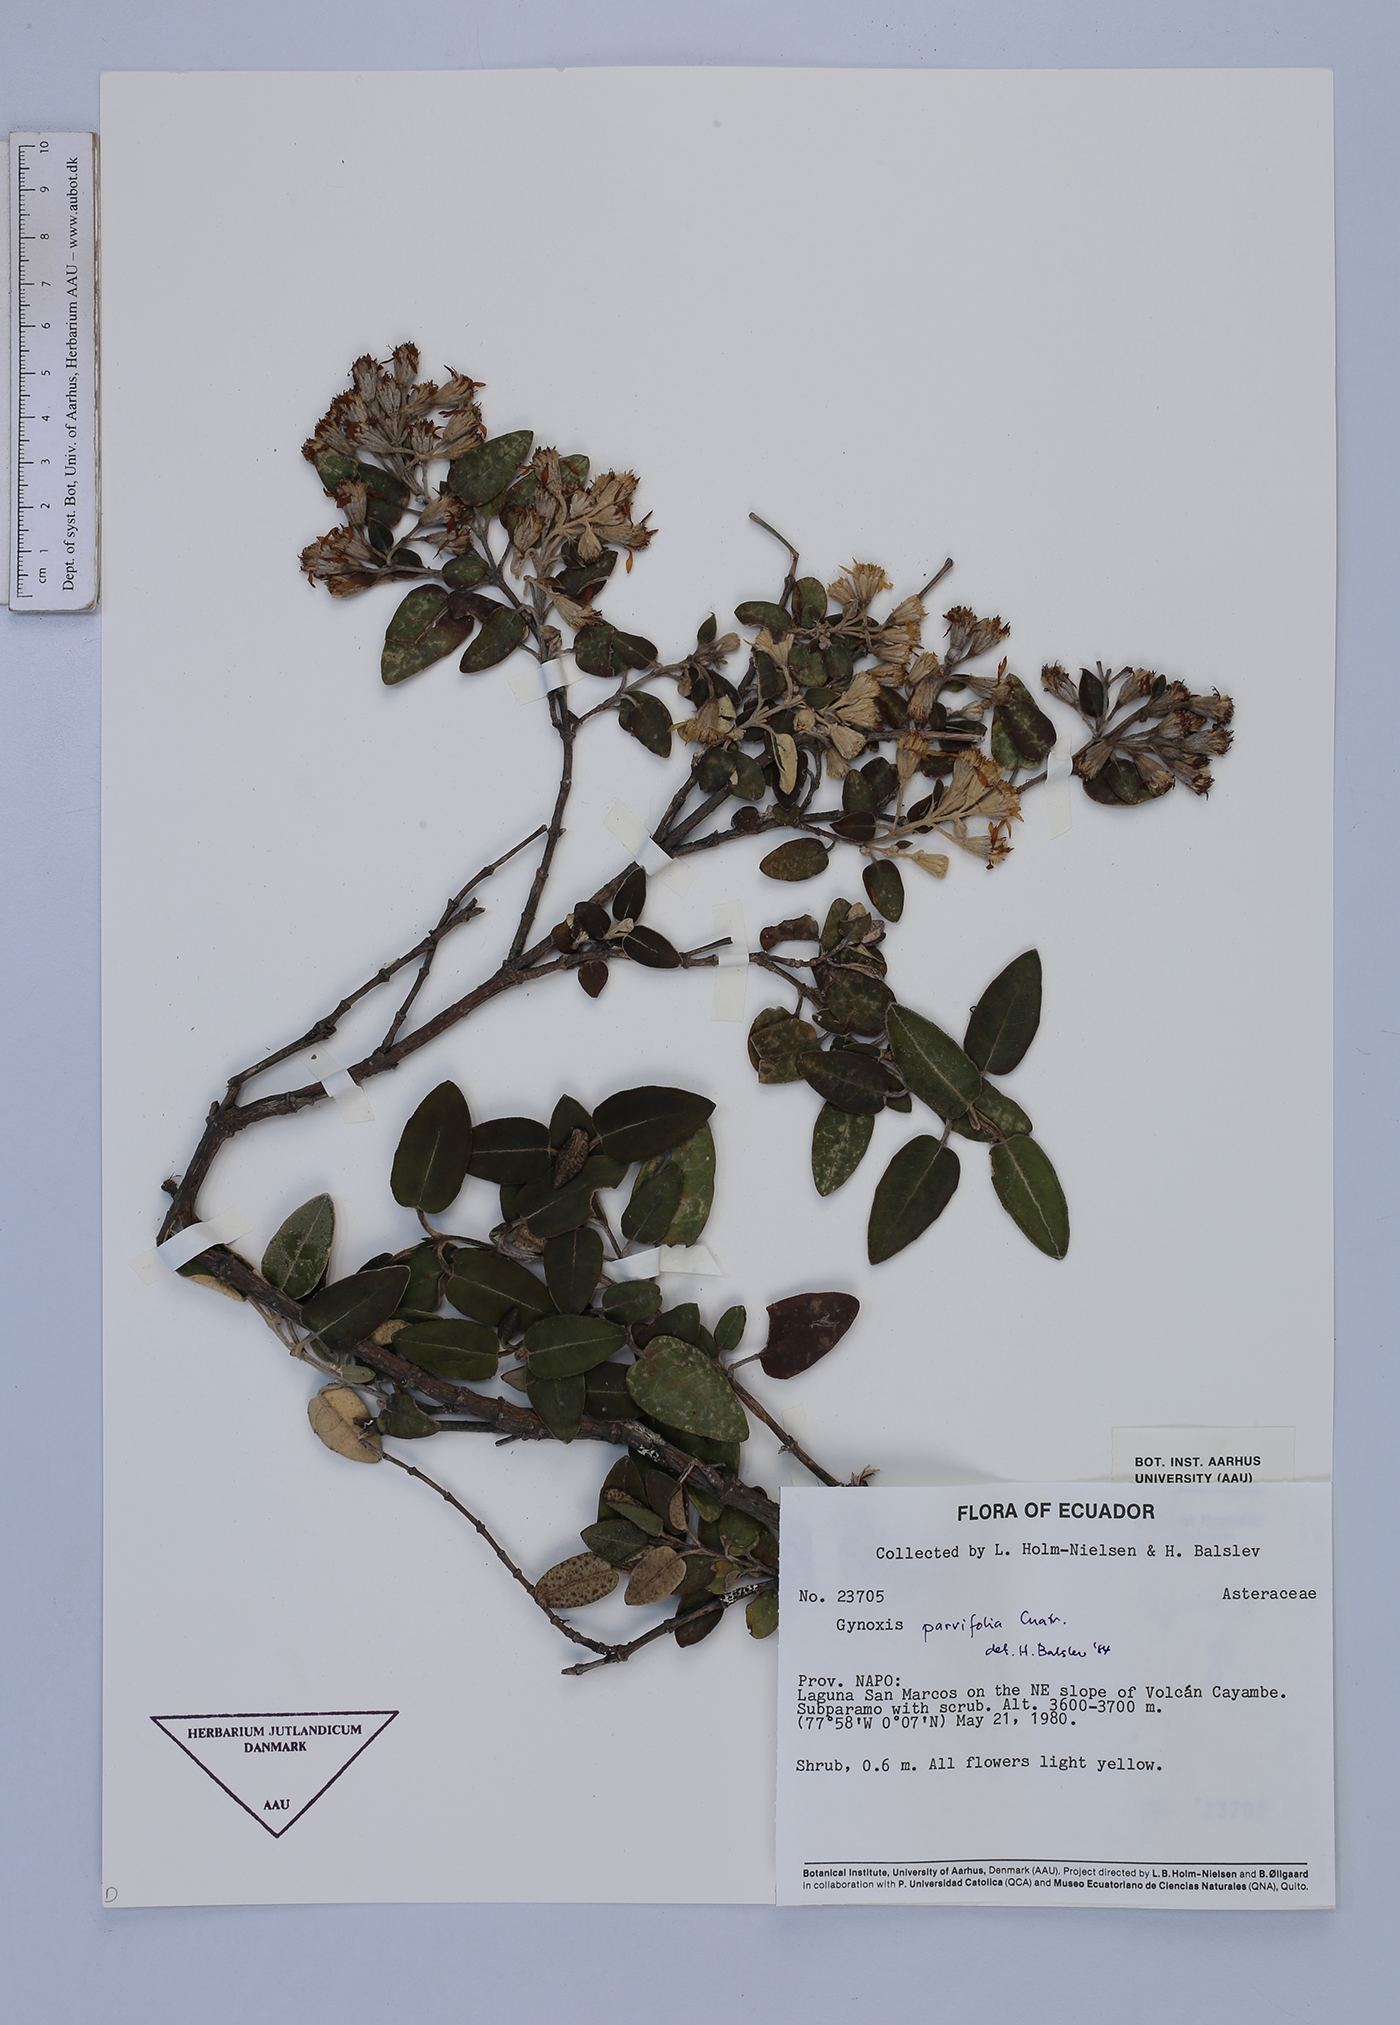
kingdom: Plantae
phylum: Tracheophyta
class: Magnoliopsida
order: Asterales
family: Asteraceae
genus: Gynoxys
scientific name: Gynoxys sodiroi
